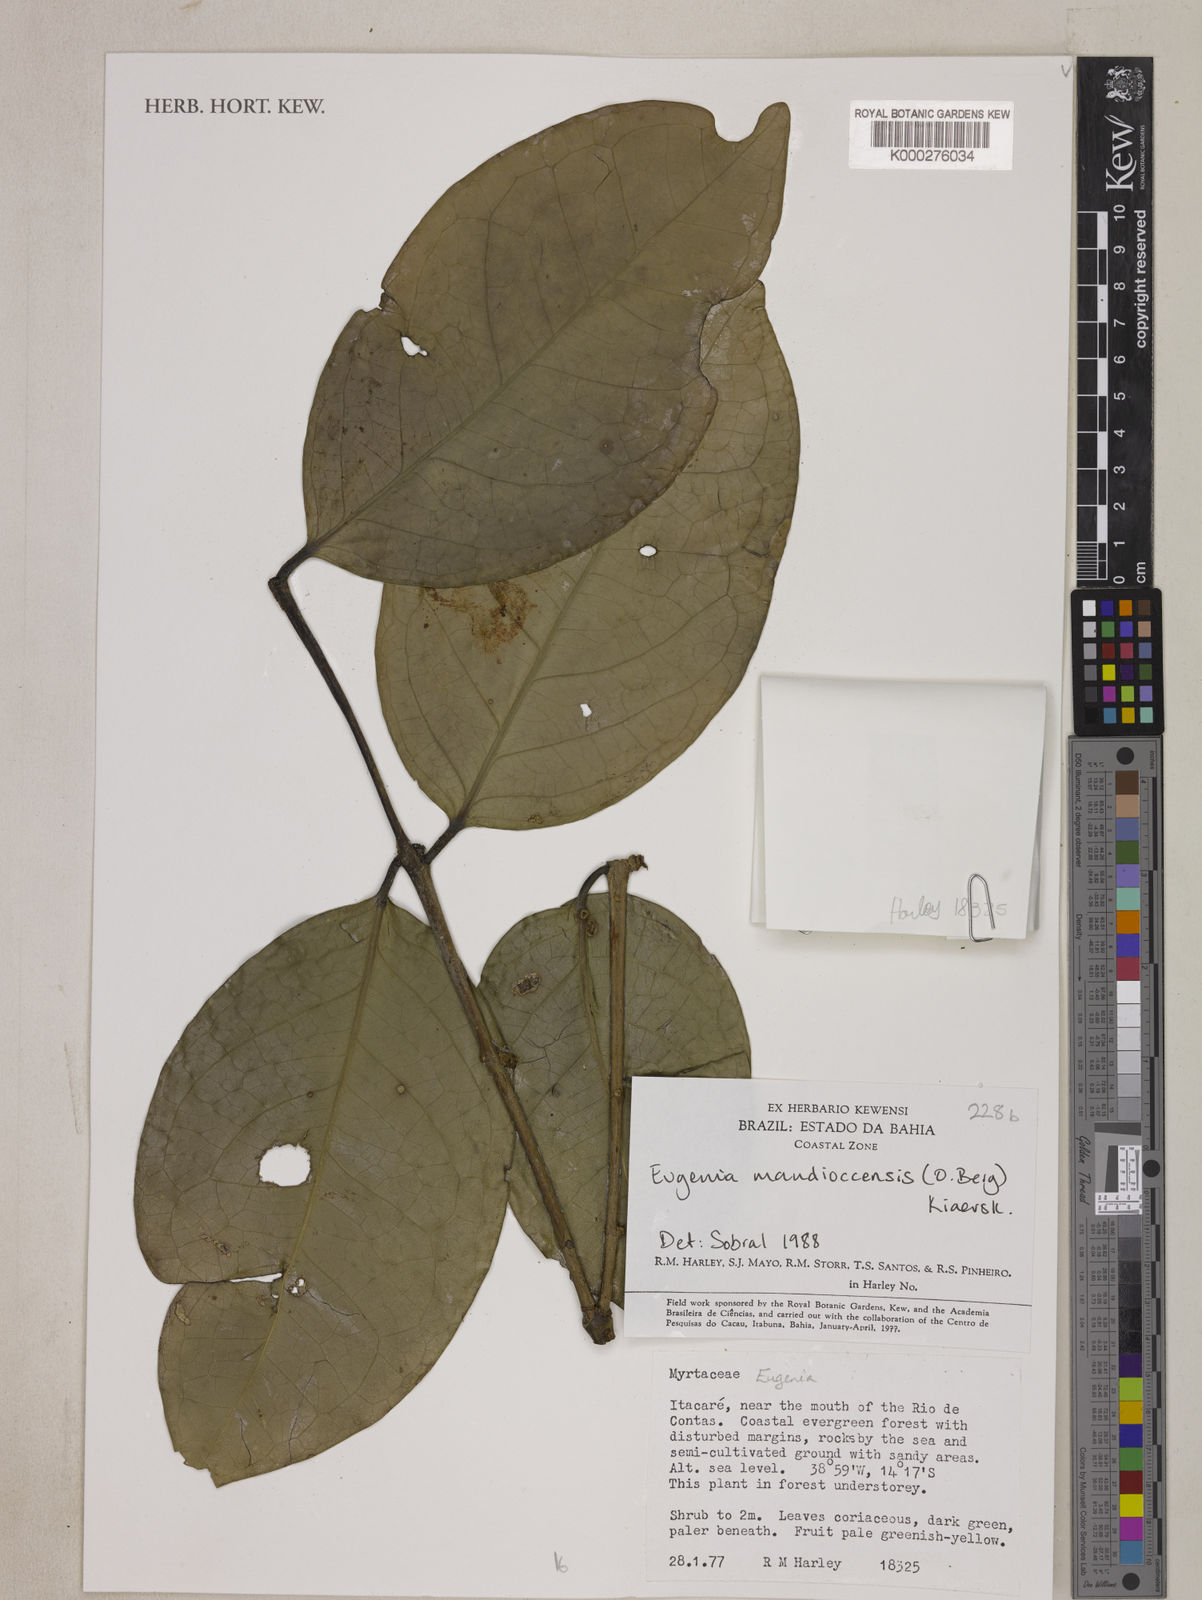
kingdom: Plantae
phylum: Tracheophyta
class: Magnoliopsida
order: Myrtales
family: Myrtaceae
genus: Eugenia
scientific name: Eugenia mandioccensis
